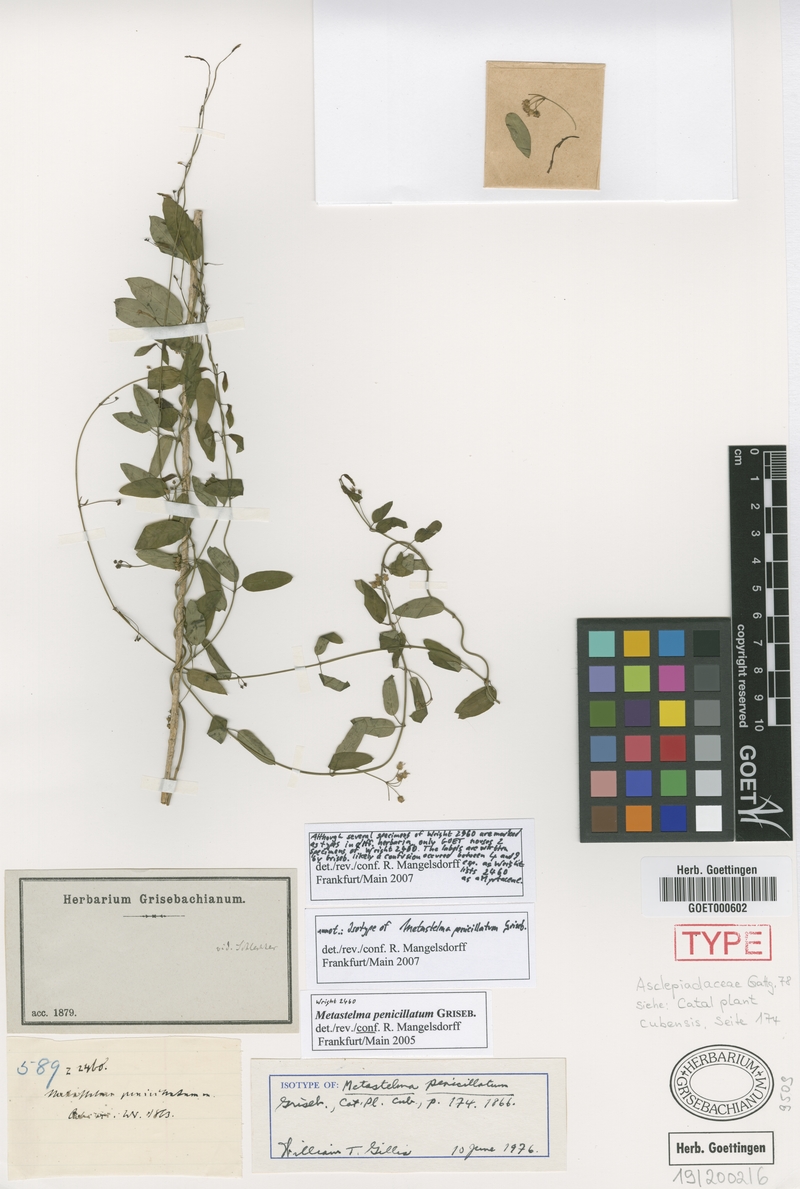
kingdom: Plantae
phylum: Tracheophyta
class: Magnoliopsida
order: Gentianales
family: Apocynaceae
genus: Metastelma
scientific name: Metastelma penicillatum
